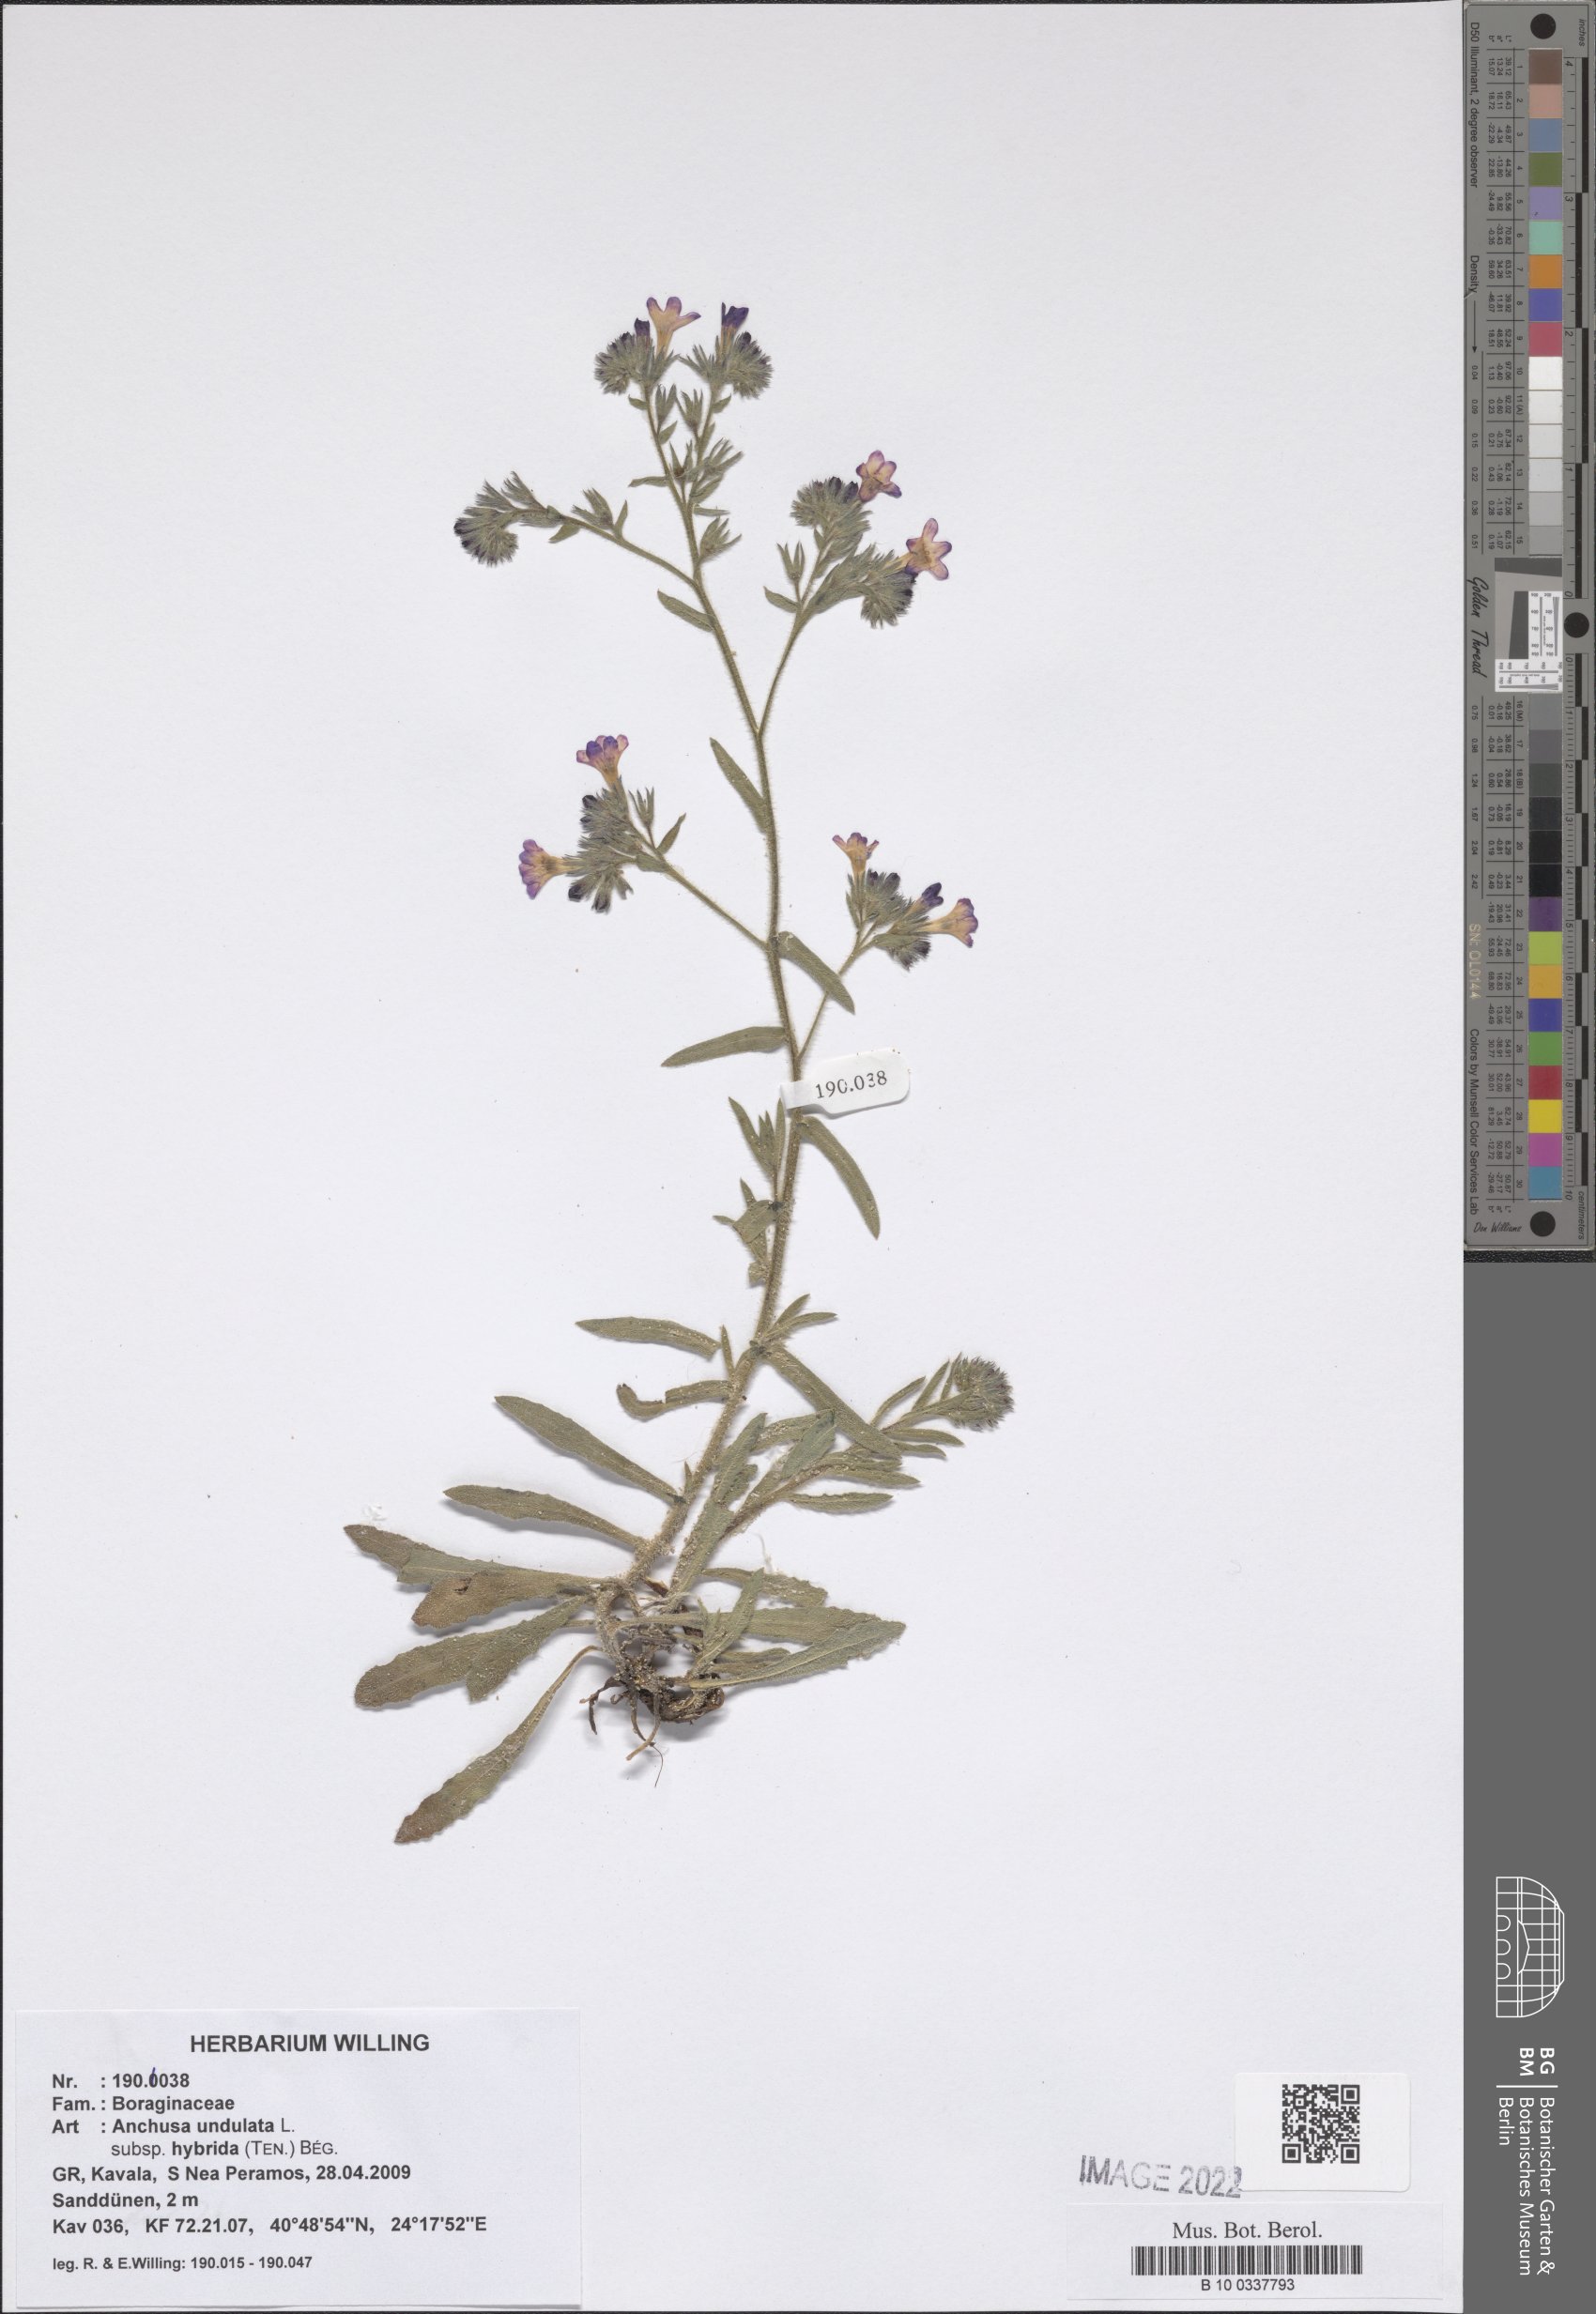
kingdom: Plantae
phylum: Tracheophyta
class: Magnoliopsida
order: Boraginales
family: Boraginaceae
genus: Anchusa
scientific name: Anchusa undulata
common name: Undulate alkanet
